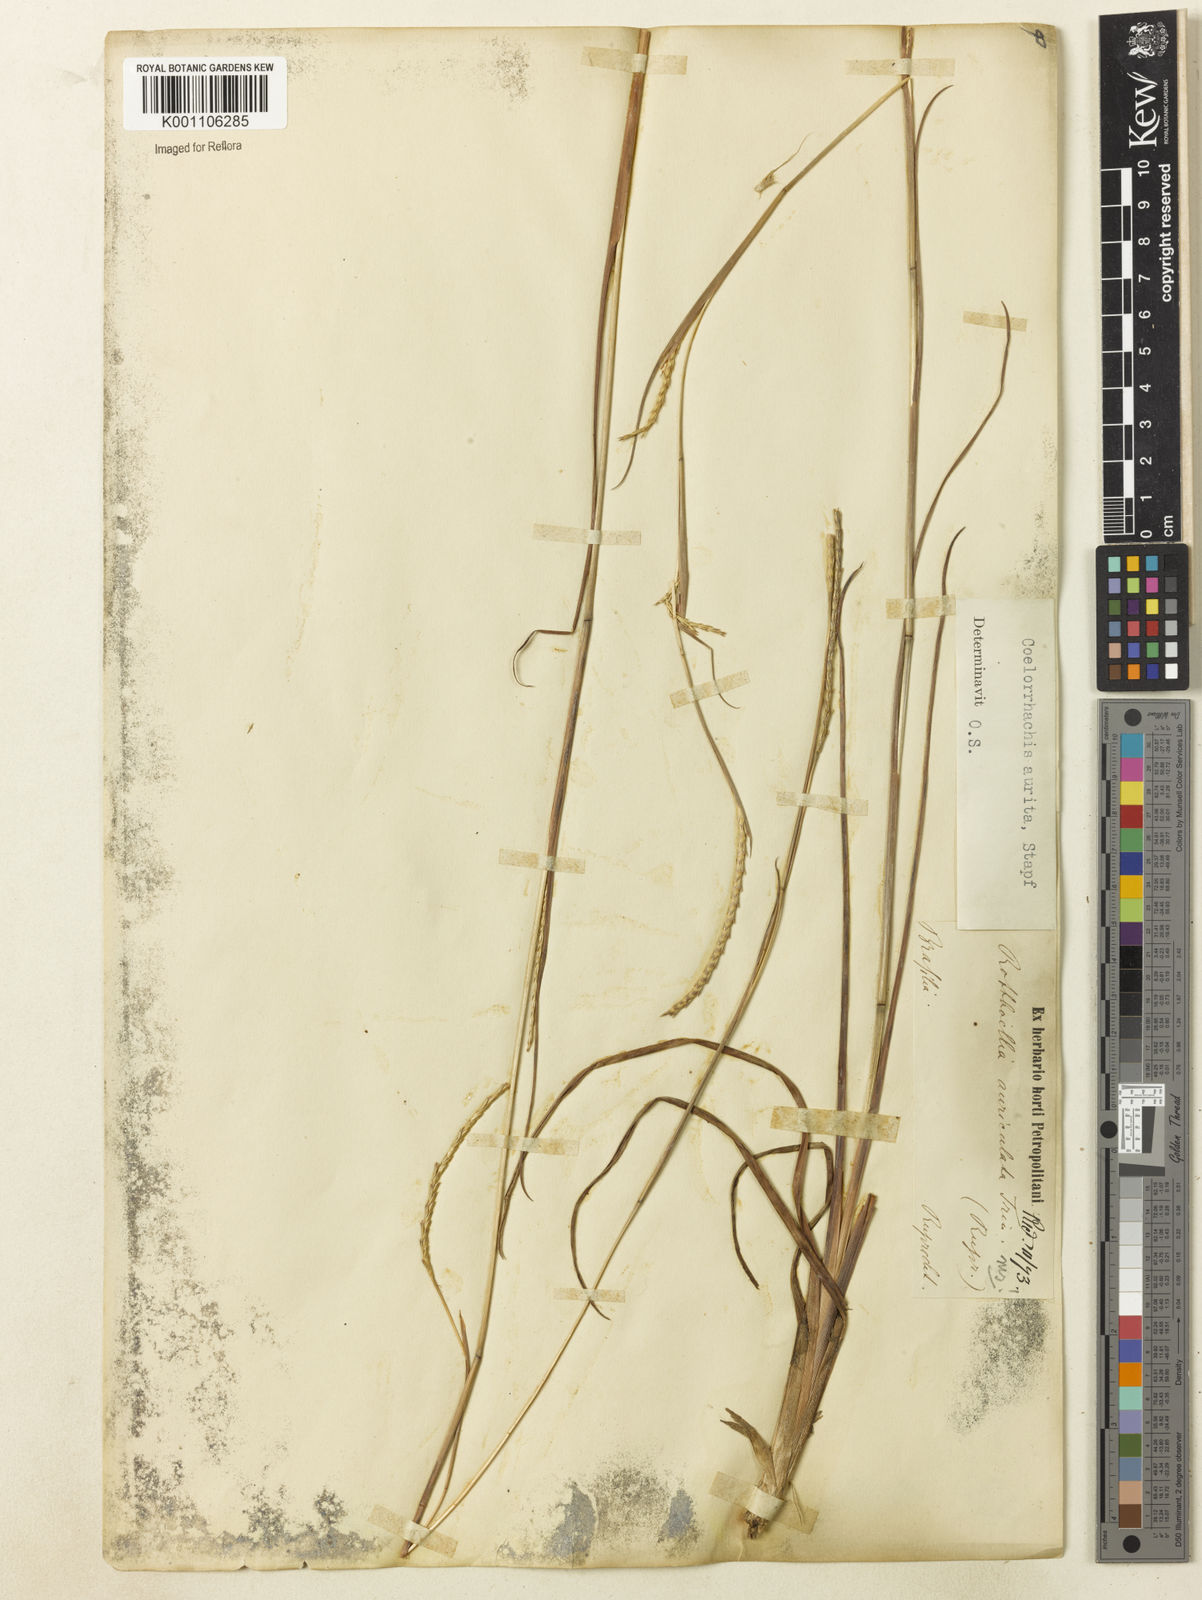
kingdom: Plantae
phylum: Tracheophyta
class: Liliopsida
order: Poales
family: Poaceae
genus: Rottboellia
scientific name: Rottboellia aurita
